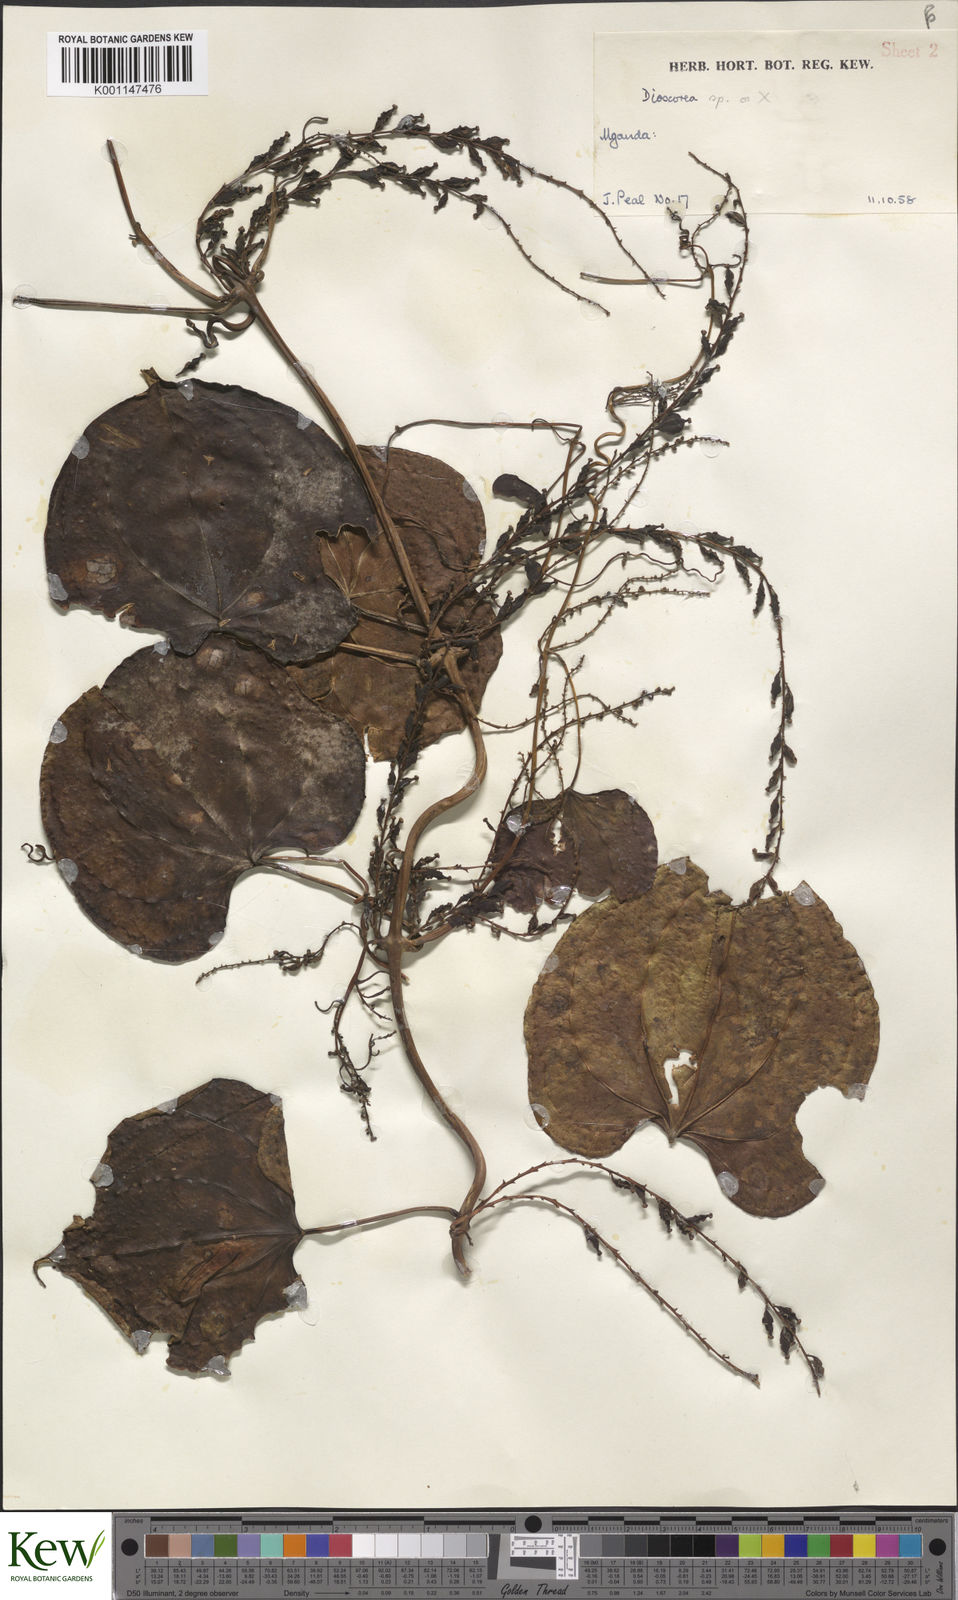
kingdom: Plantae
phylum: Tracheophyta
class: Liliopsida
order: Dioscoreales
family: Dioscoreaceae
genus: Dioscorea
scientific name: Dioscorea
